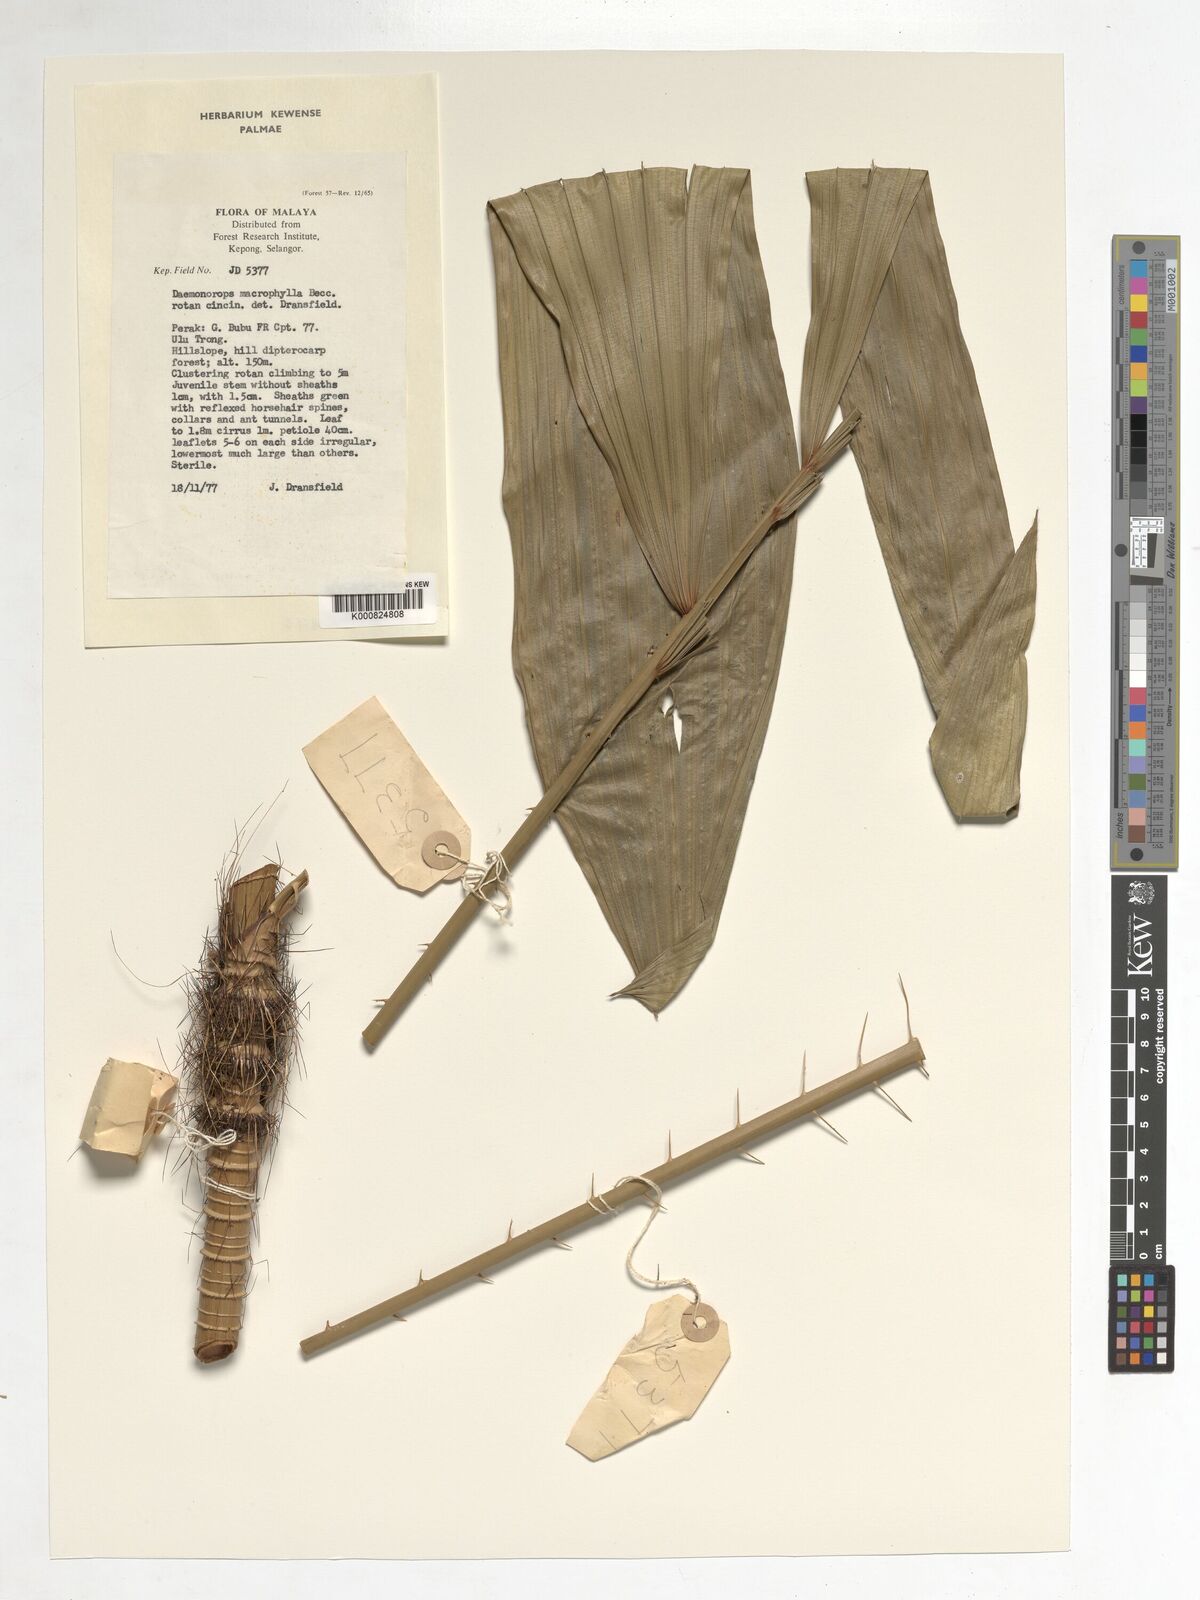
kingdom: Plantae
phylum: Tracheophyta
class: Liliopsida
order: Arecales
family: Arecaceae
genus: Calamus
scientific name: Calamus crinitus
